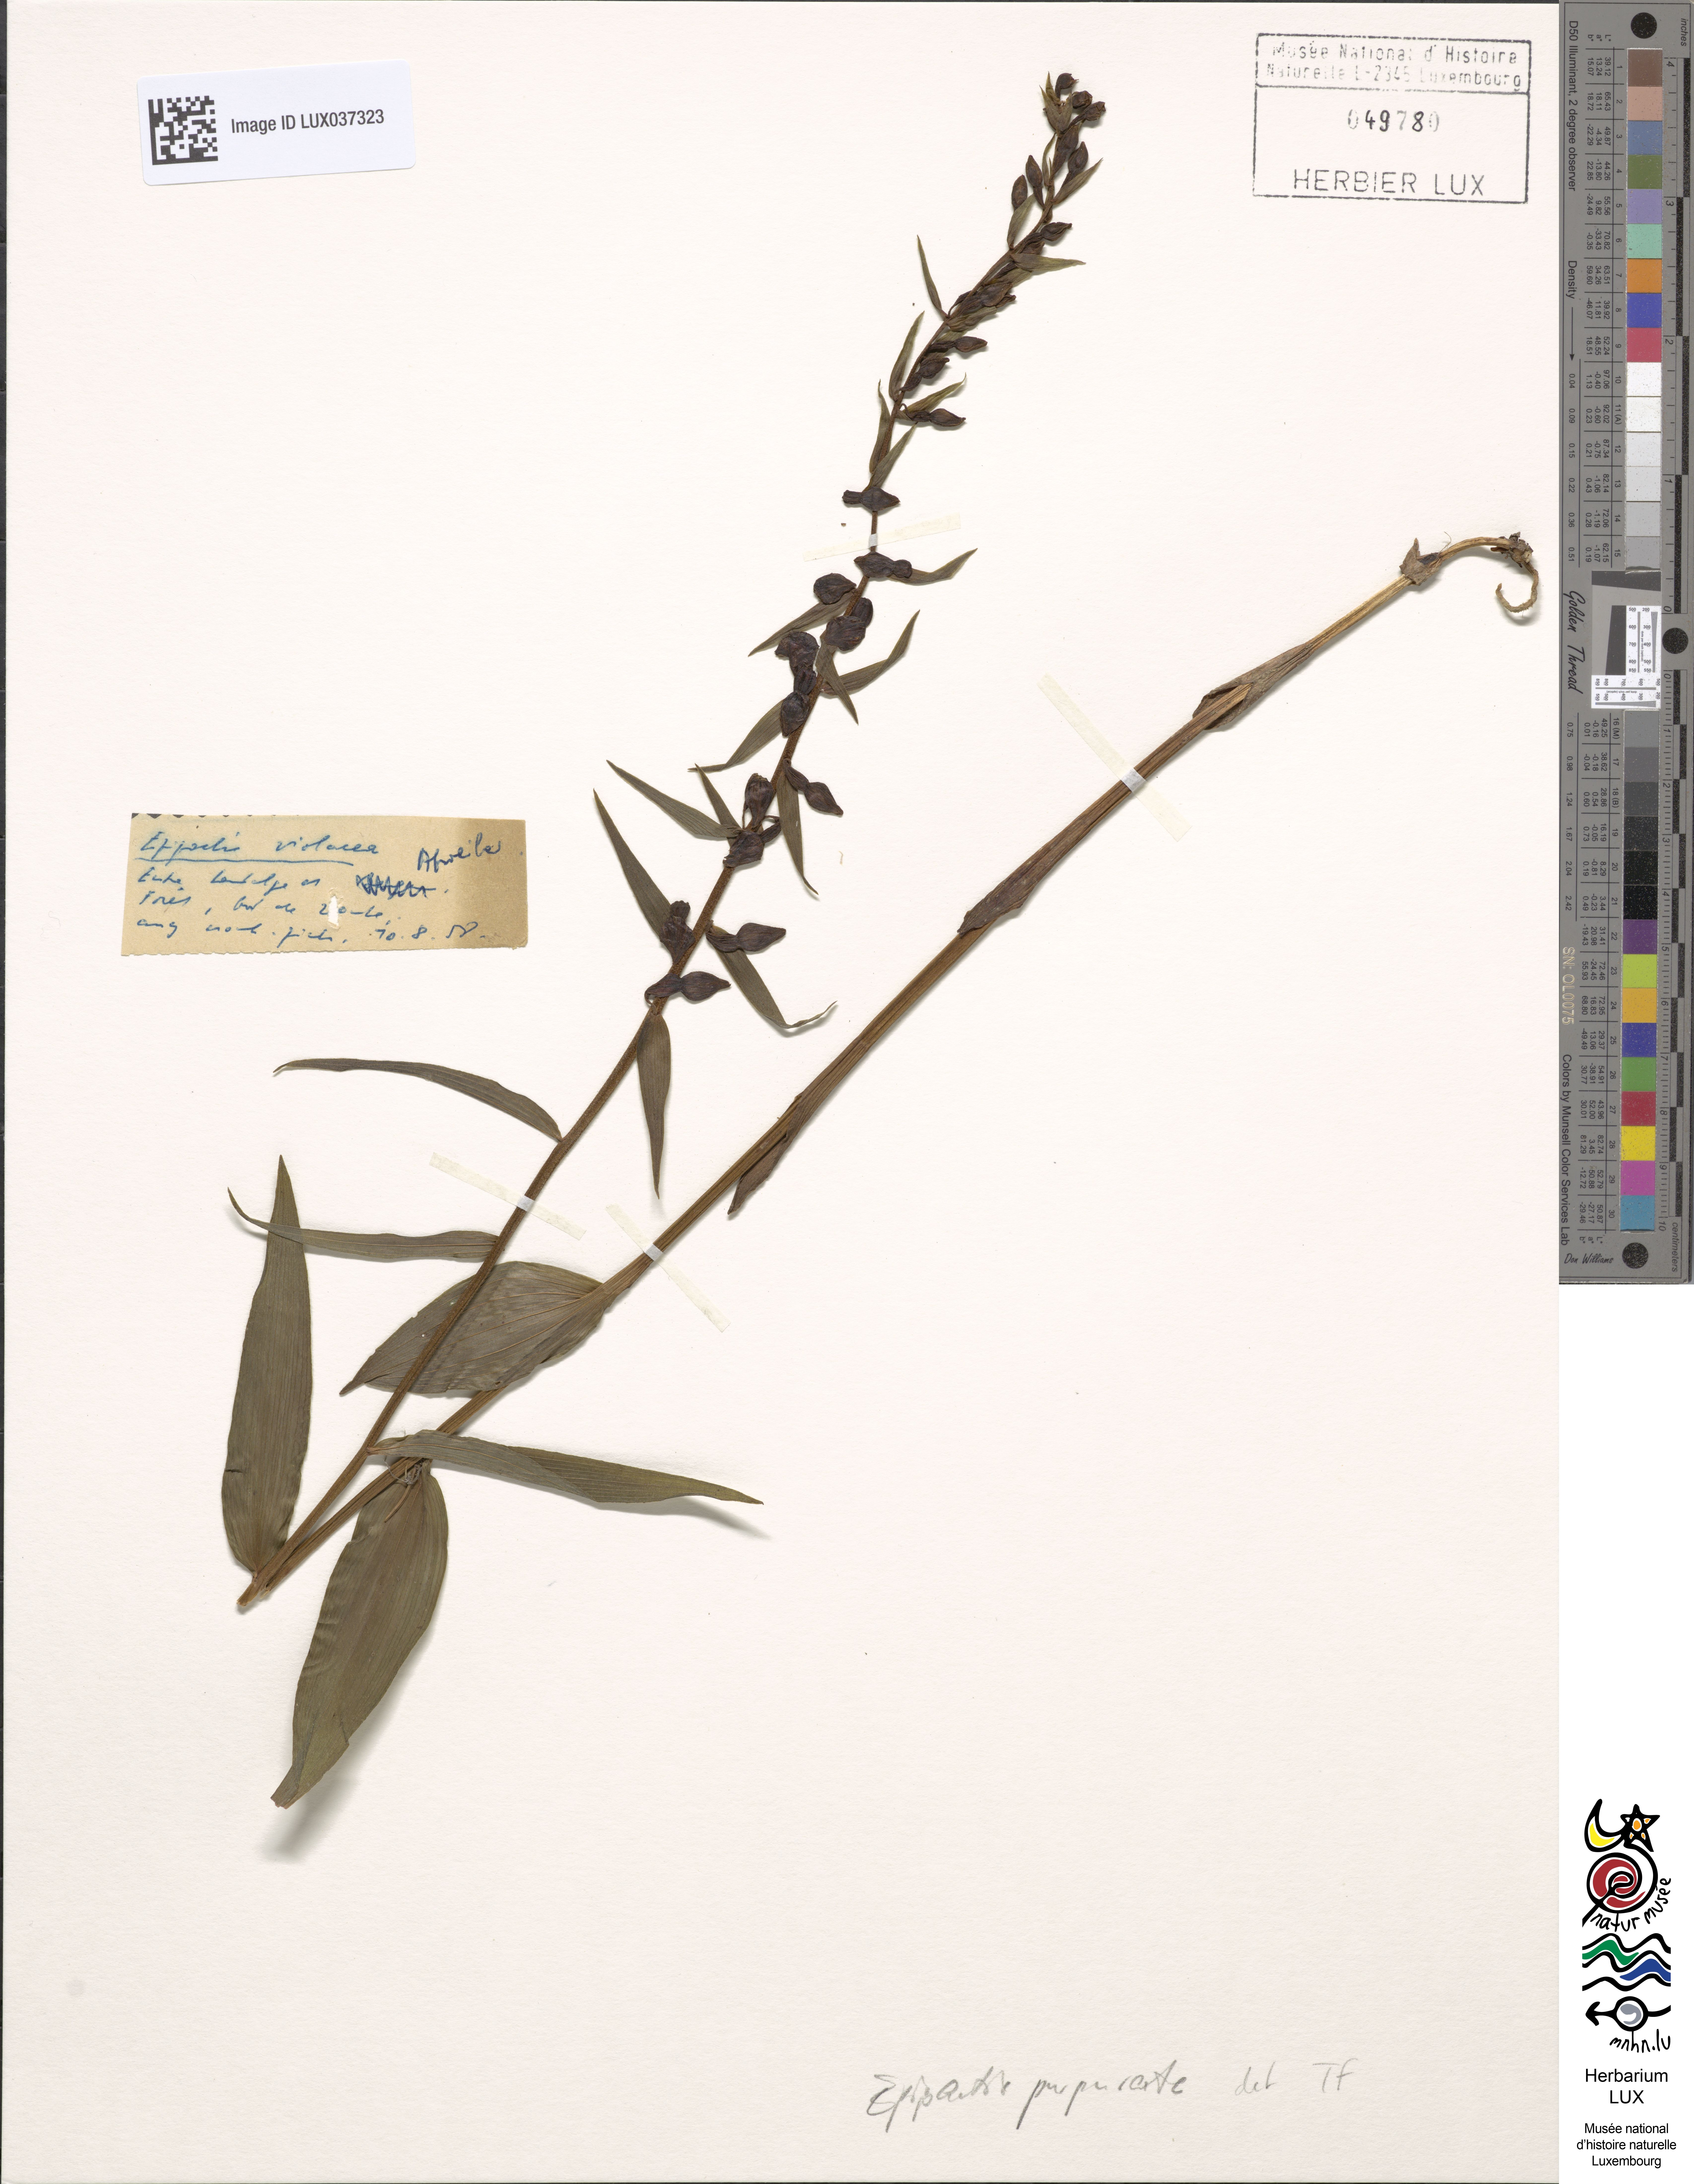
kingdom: Plantae
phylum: Tracheophyta
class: Liliopsida
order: Asparagales
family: Orchidaceae
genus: Epipactis
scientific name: Epipactis purpurata
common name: Violet helleborine
